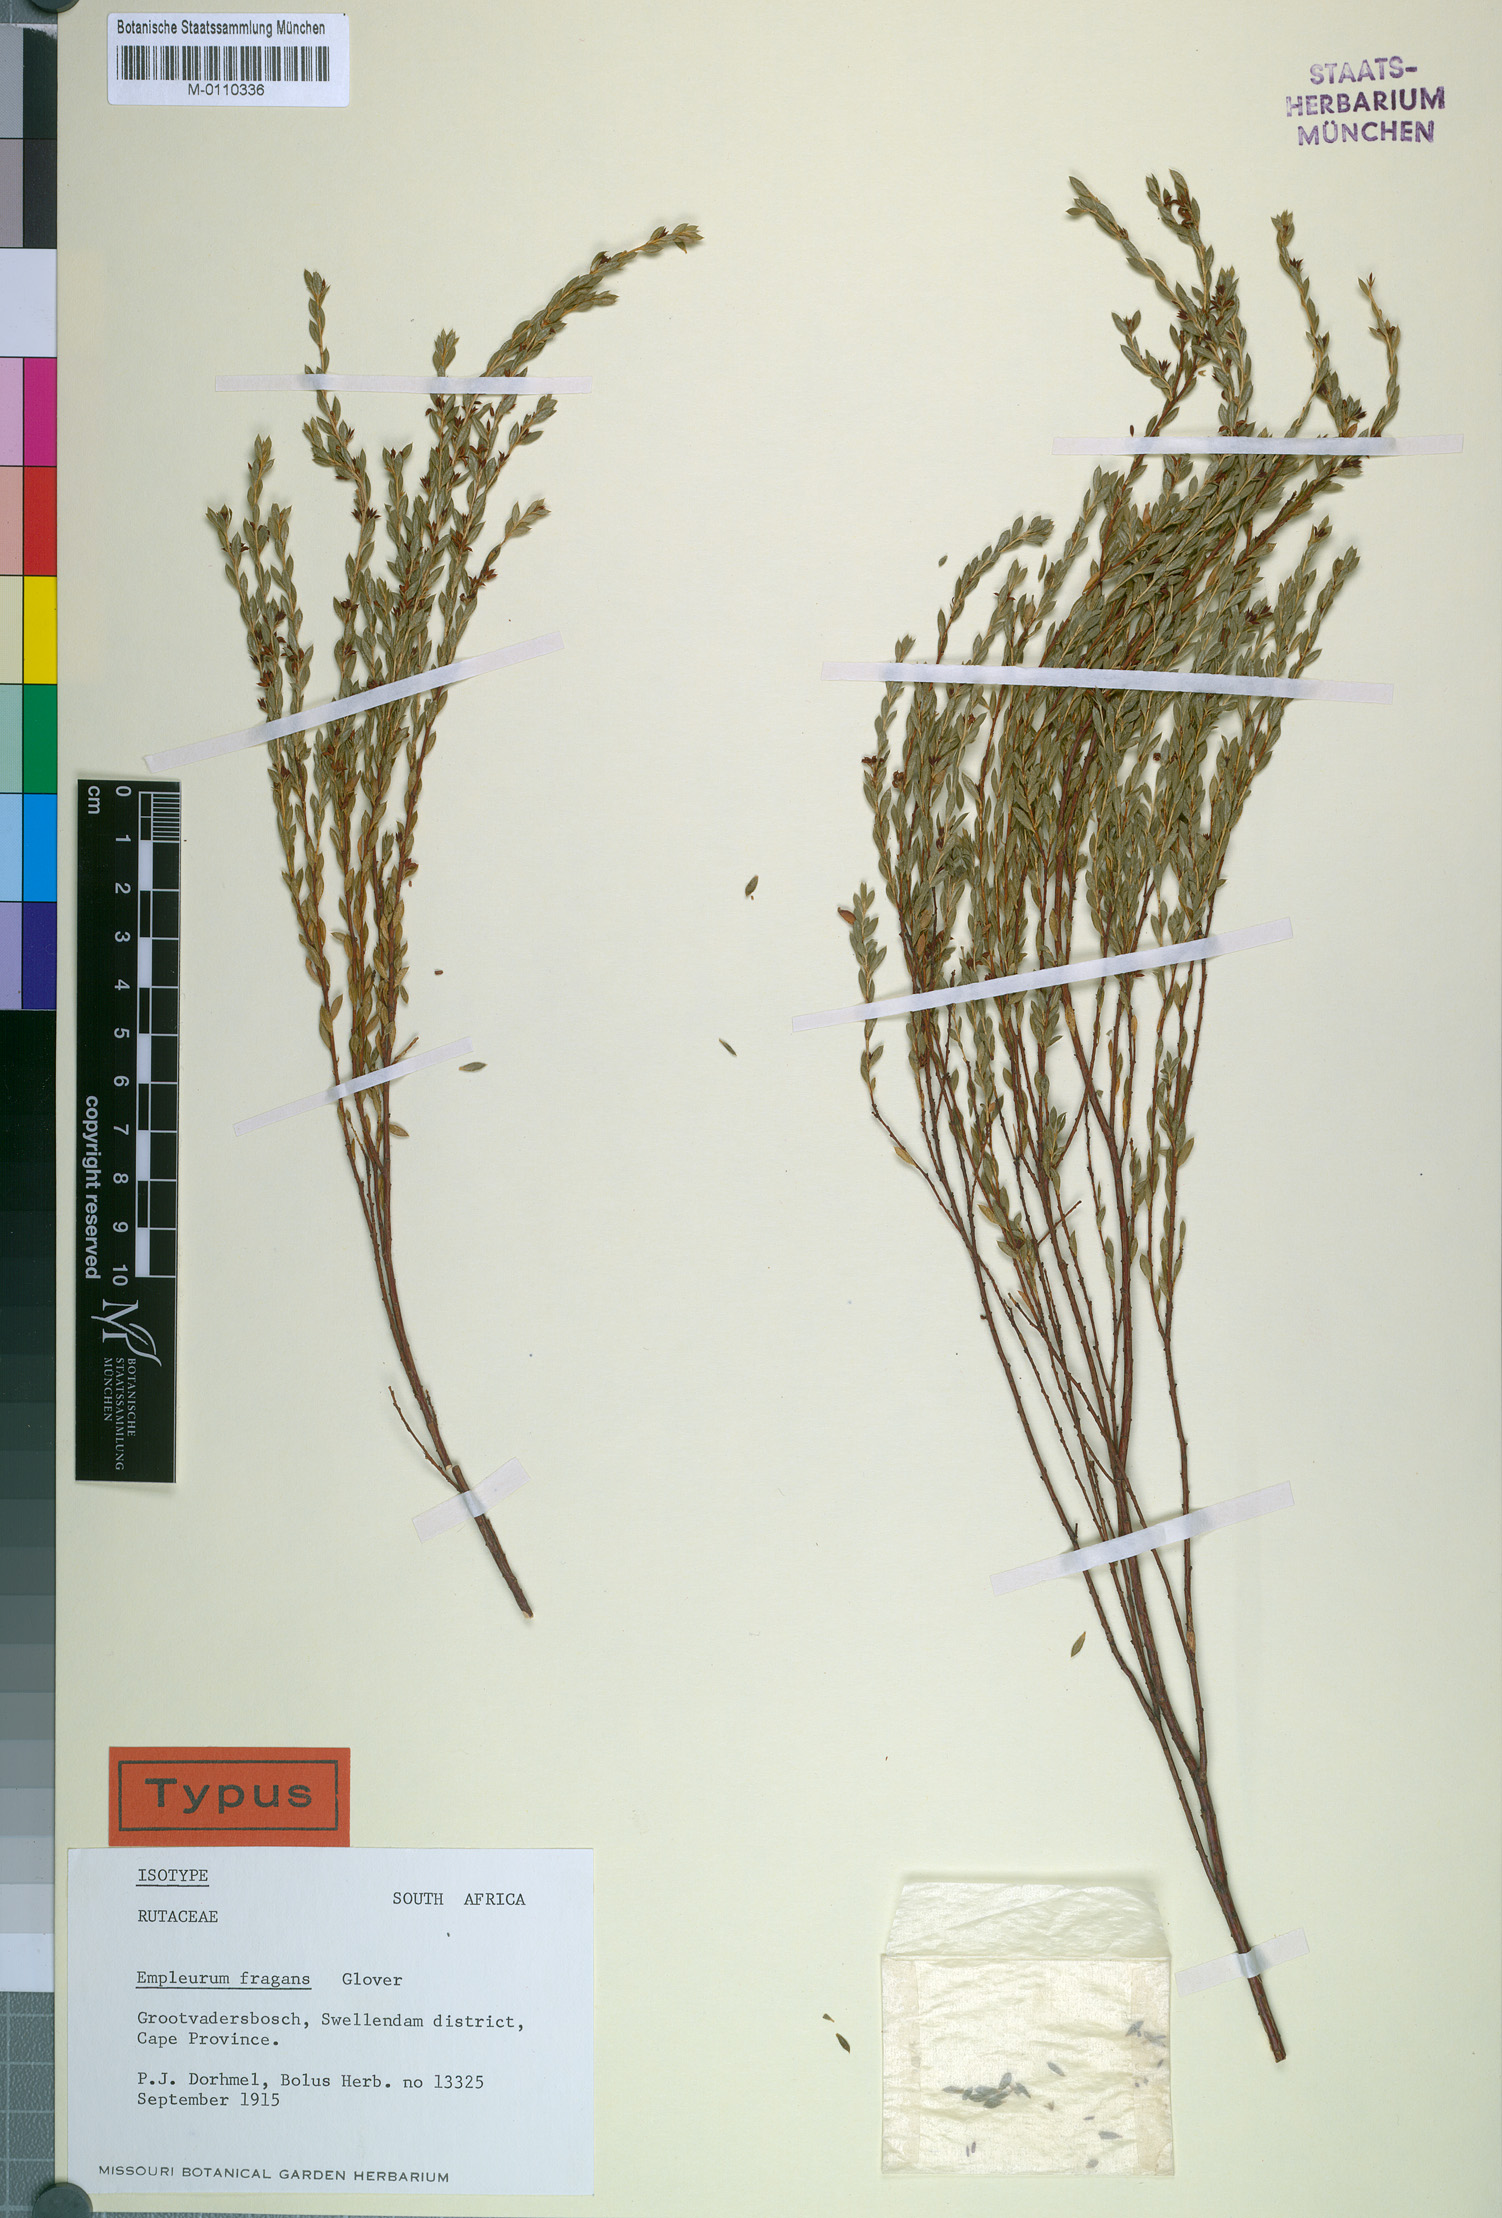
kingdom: Plantae
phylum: Tracheophyta
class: Magnoliopsida
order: Sapindales
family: Rutaceae
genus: Empleurum
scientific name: Empleurum fragrans
